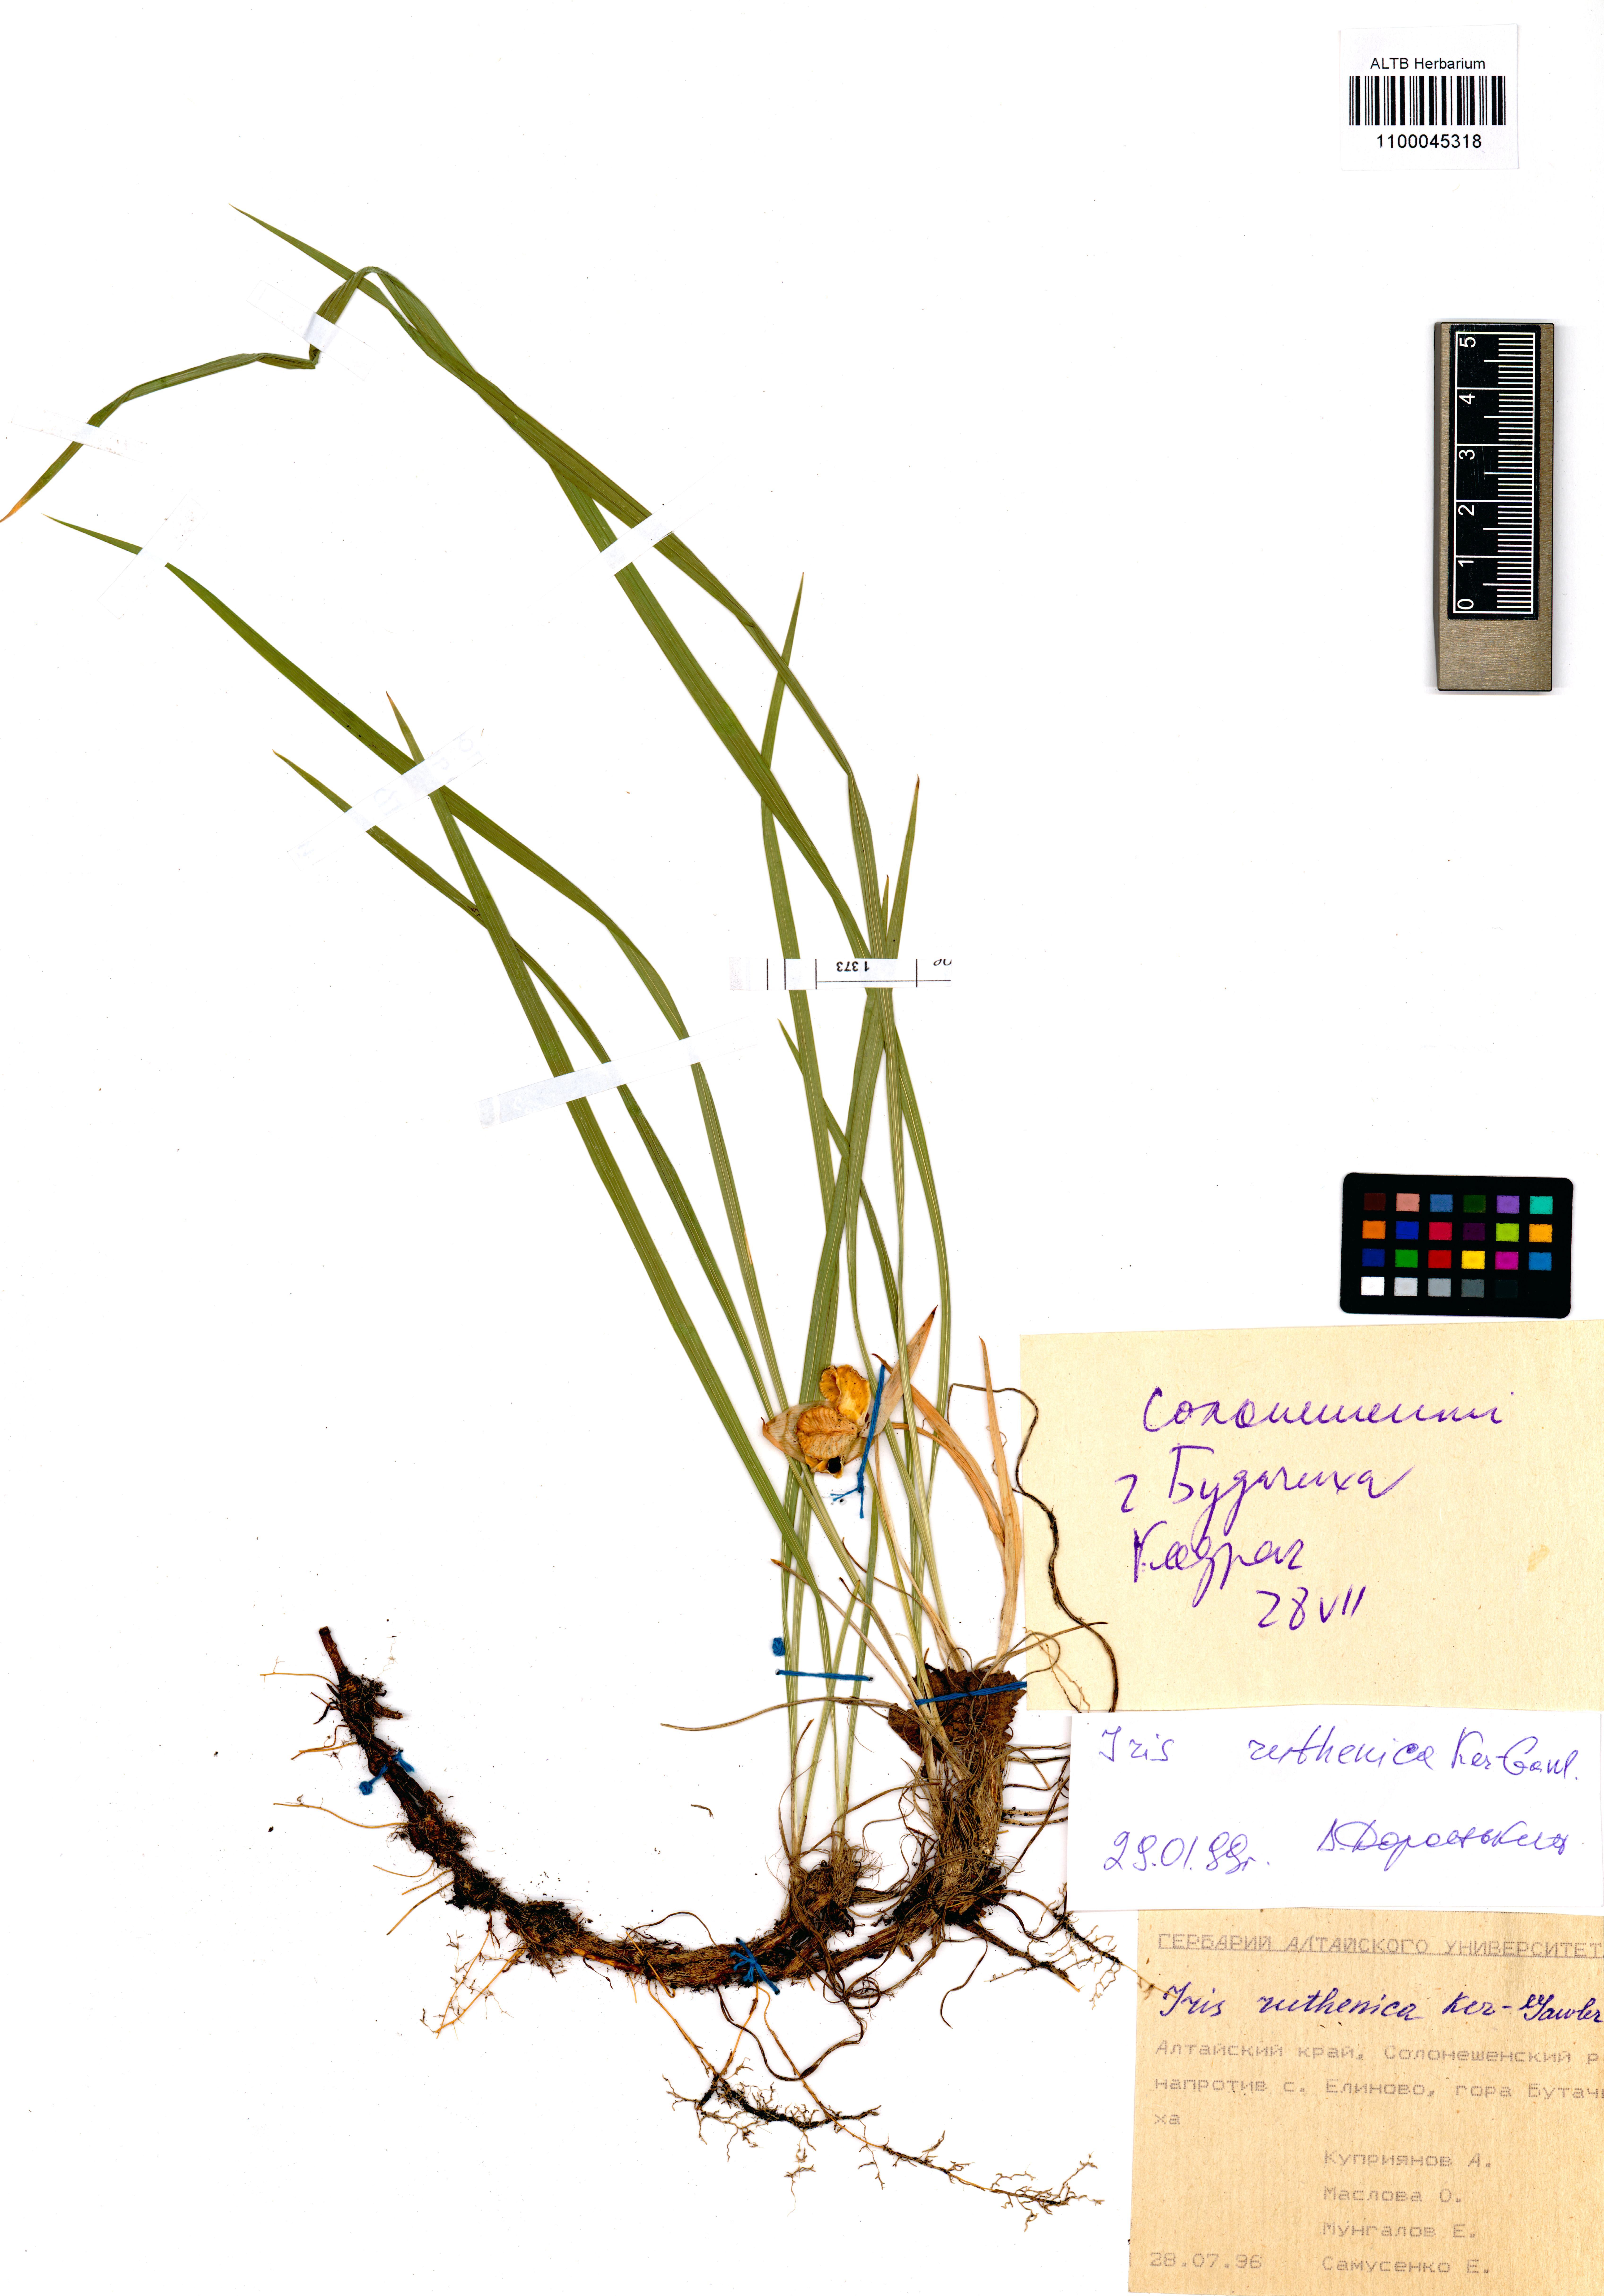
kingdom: Plantae
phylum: Tracheophyta
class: Liliopsida
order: Asparagales
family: Iridaceae
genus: Iris
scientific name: Iris ruthenica
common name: Purple-bract iris
